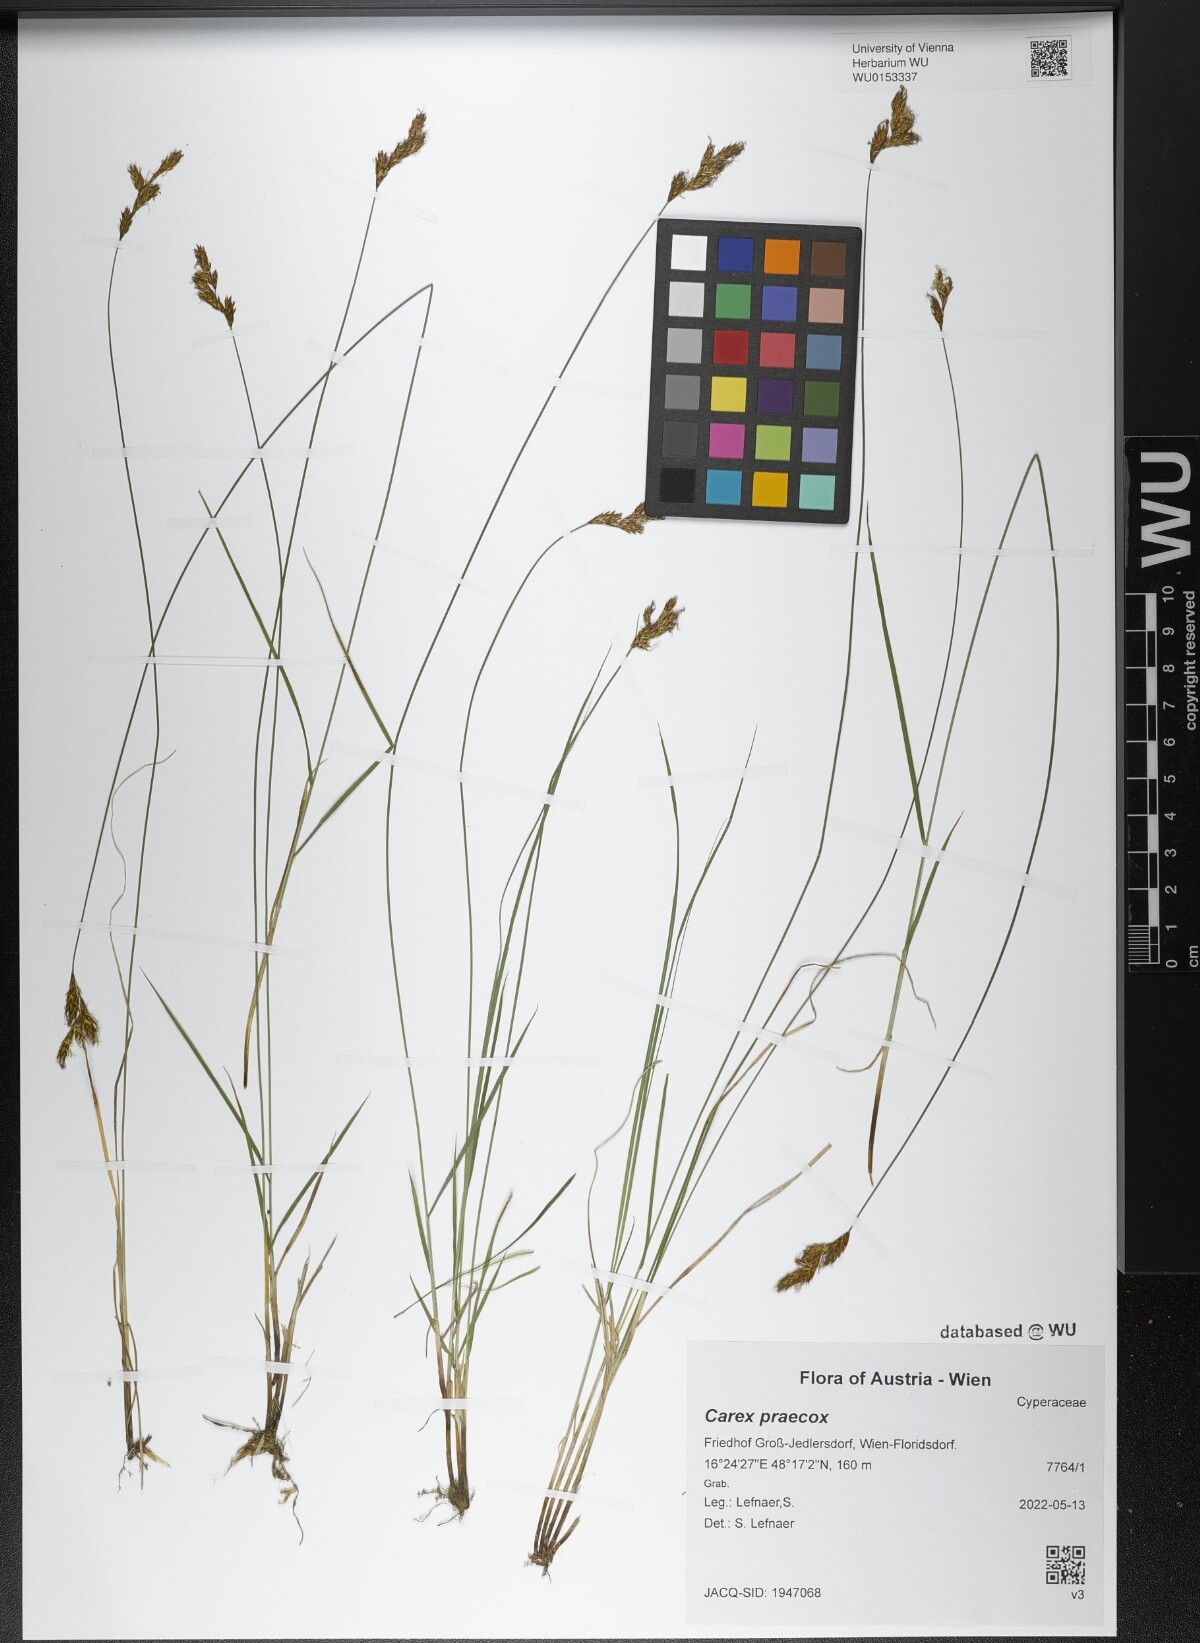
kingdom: Plantae
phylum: Tracheophyta
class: Liliopsida
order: Poales
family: Cyperaceae
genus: Carex
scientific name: Carex praecox
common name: Early sedge
